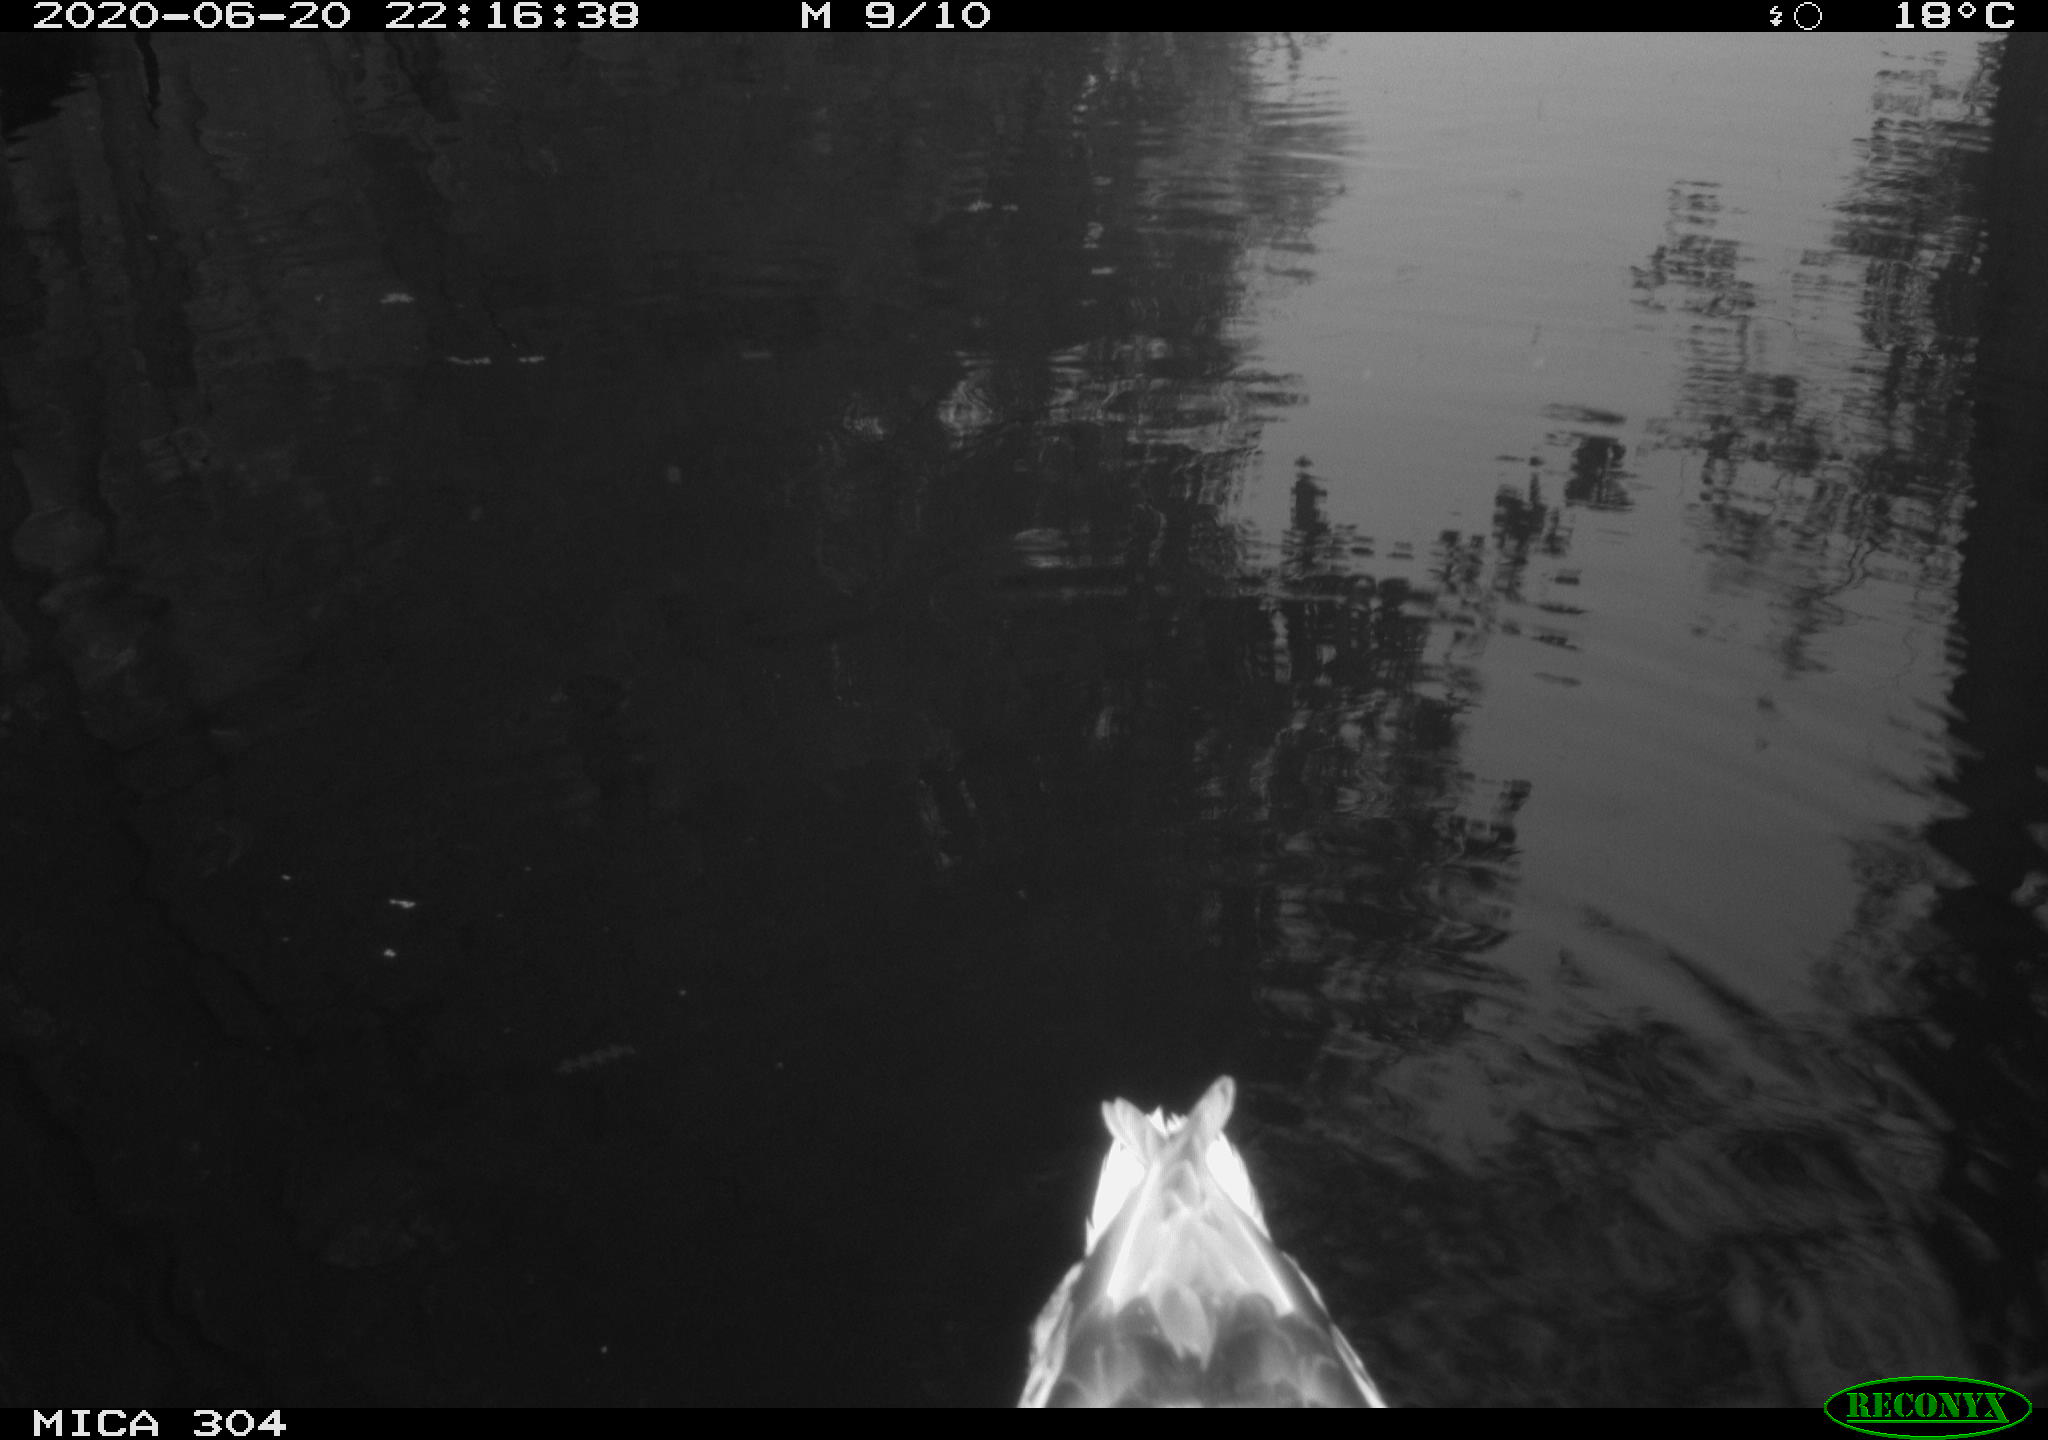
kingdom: Animalia
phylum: Chordata
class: Aves
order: Anseriformes
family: Anatidae
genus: Anas
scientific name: Anas platyrhynchos
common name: Mallard
